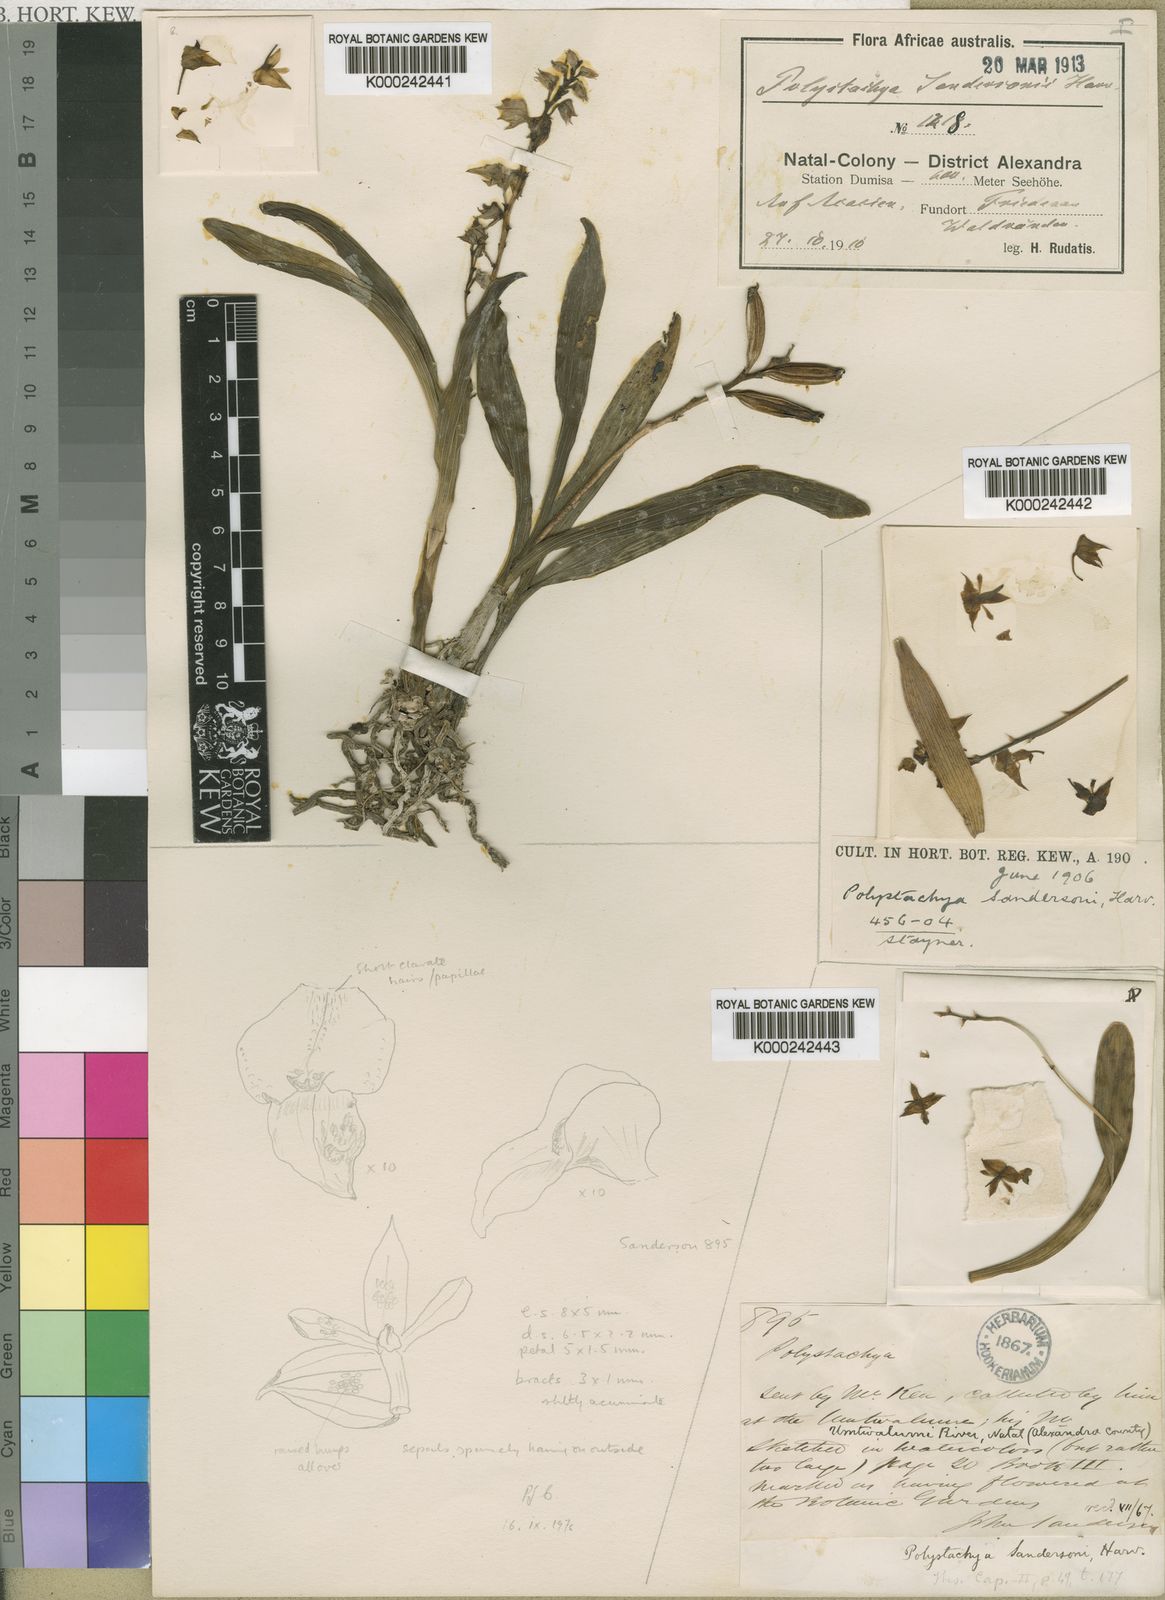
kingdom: Plantae
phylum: Tracheophyta
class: Liliopsida
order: Asparagales
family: Orchidaceae
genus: Polystachya
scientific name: Polystachya sandersonii
